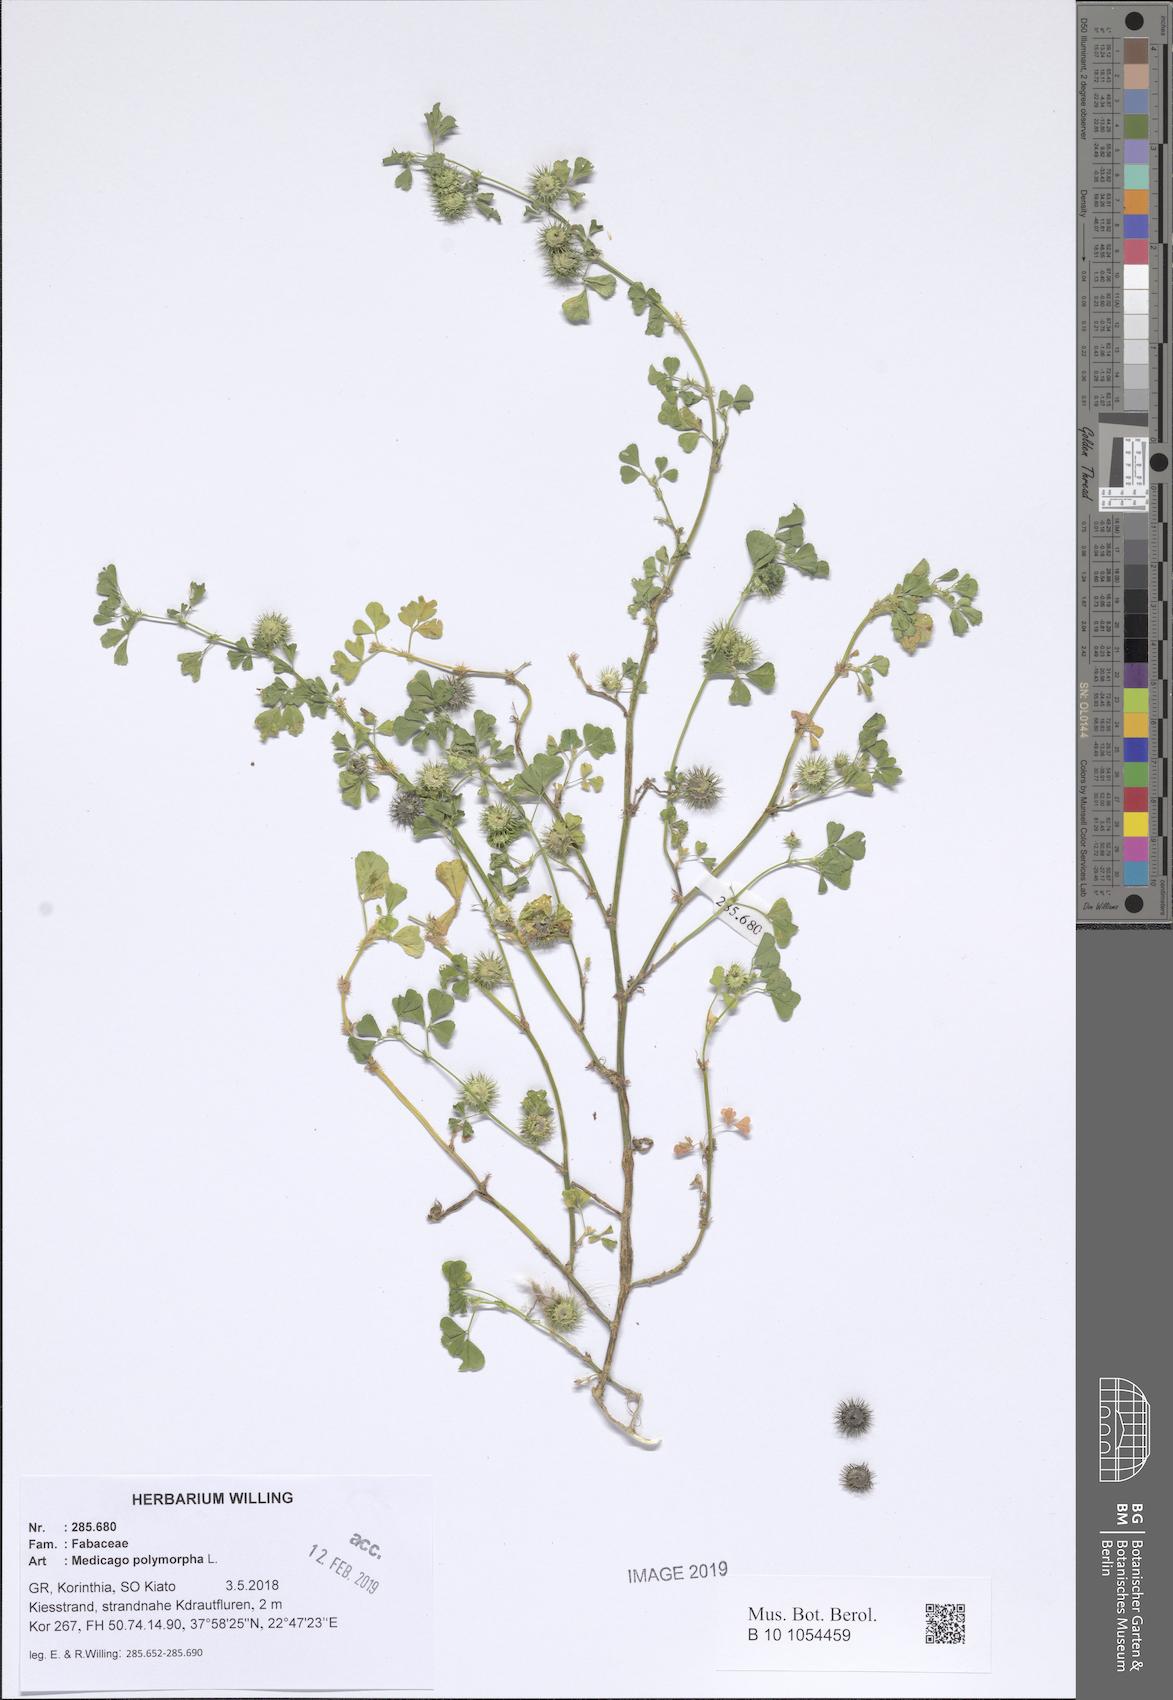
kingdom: Plantae
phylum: Tracheophyta
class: Magnoliopsida
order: Fabales
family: Fabaceae
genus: Medicago
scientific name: Medicago polymorpha
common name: Burclover
